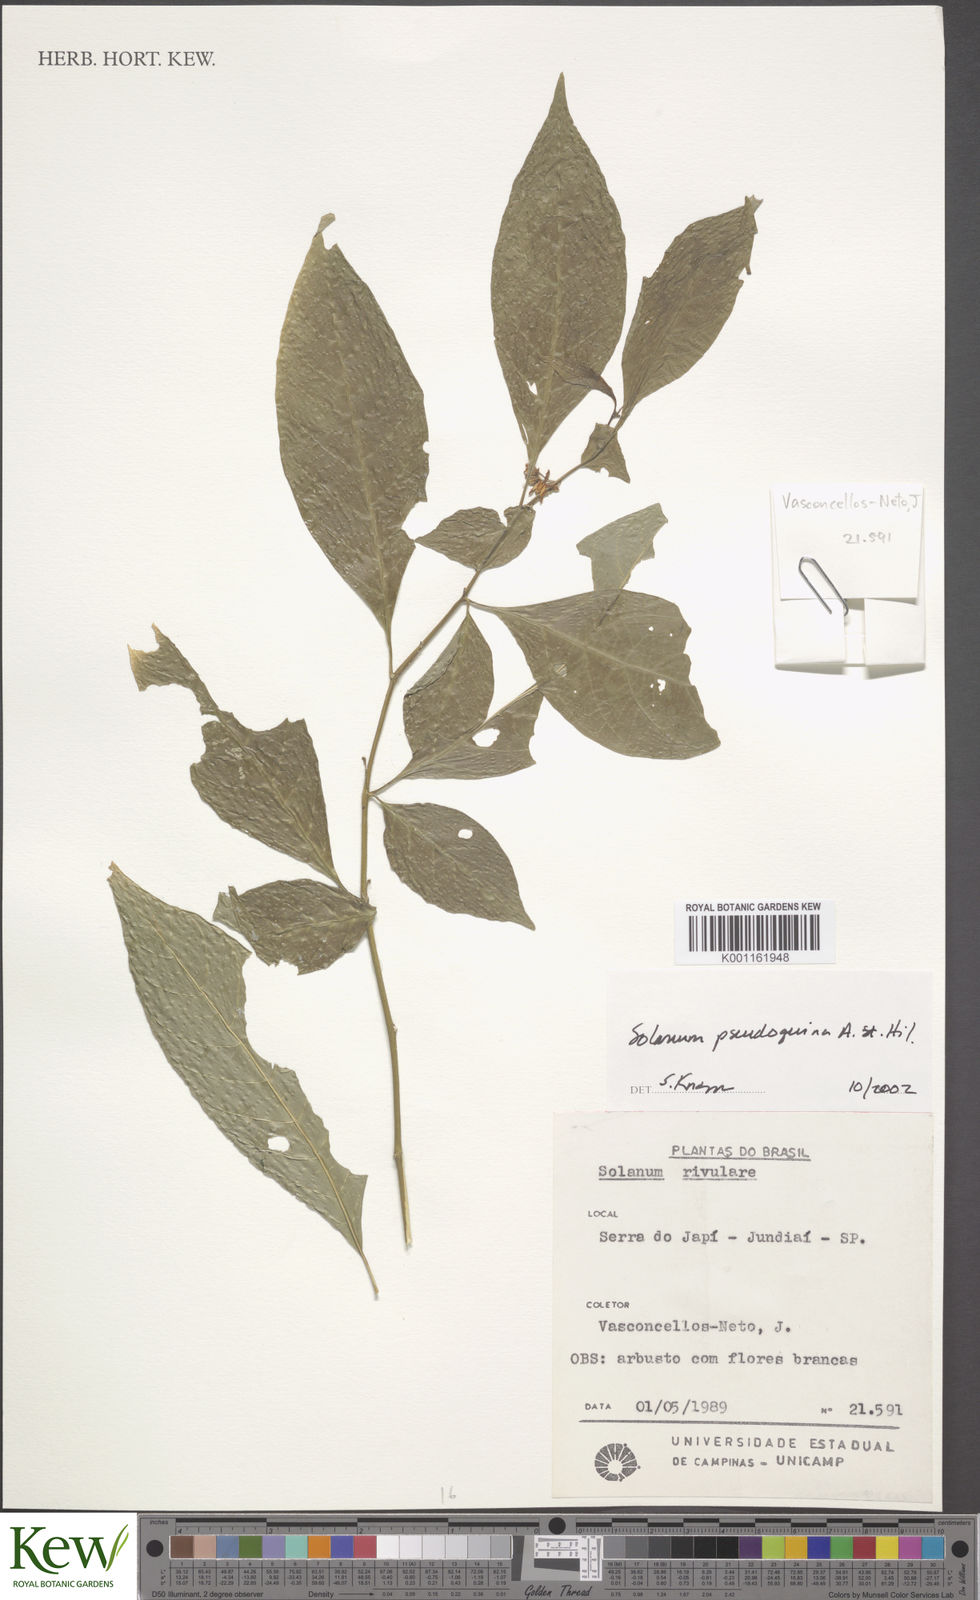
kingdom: Plantae
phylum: Tracheophyta
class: Magnoliopsida
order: Solanales
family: Solanaceae
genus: Solanum
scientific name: Solanum pseudoquina
